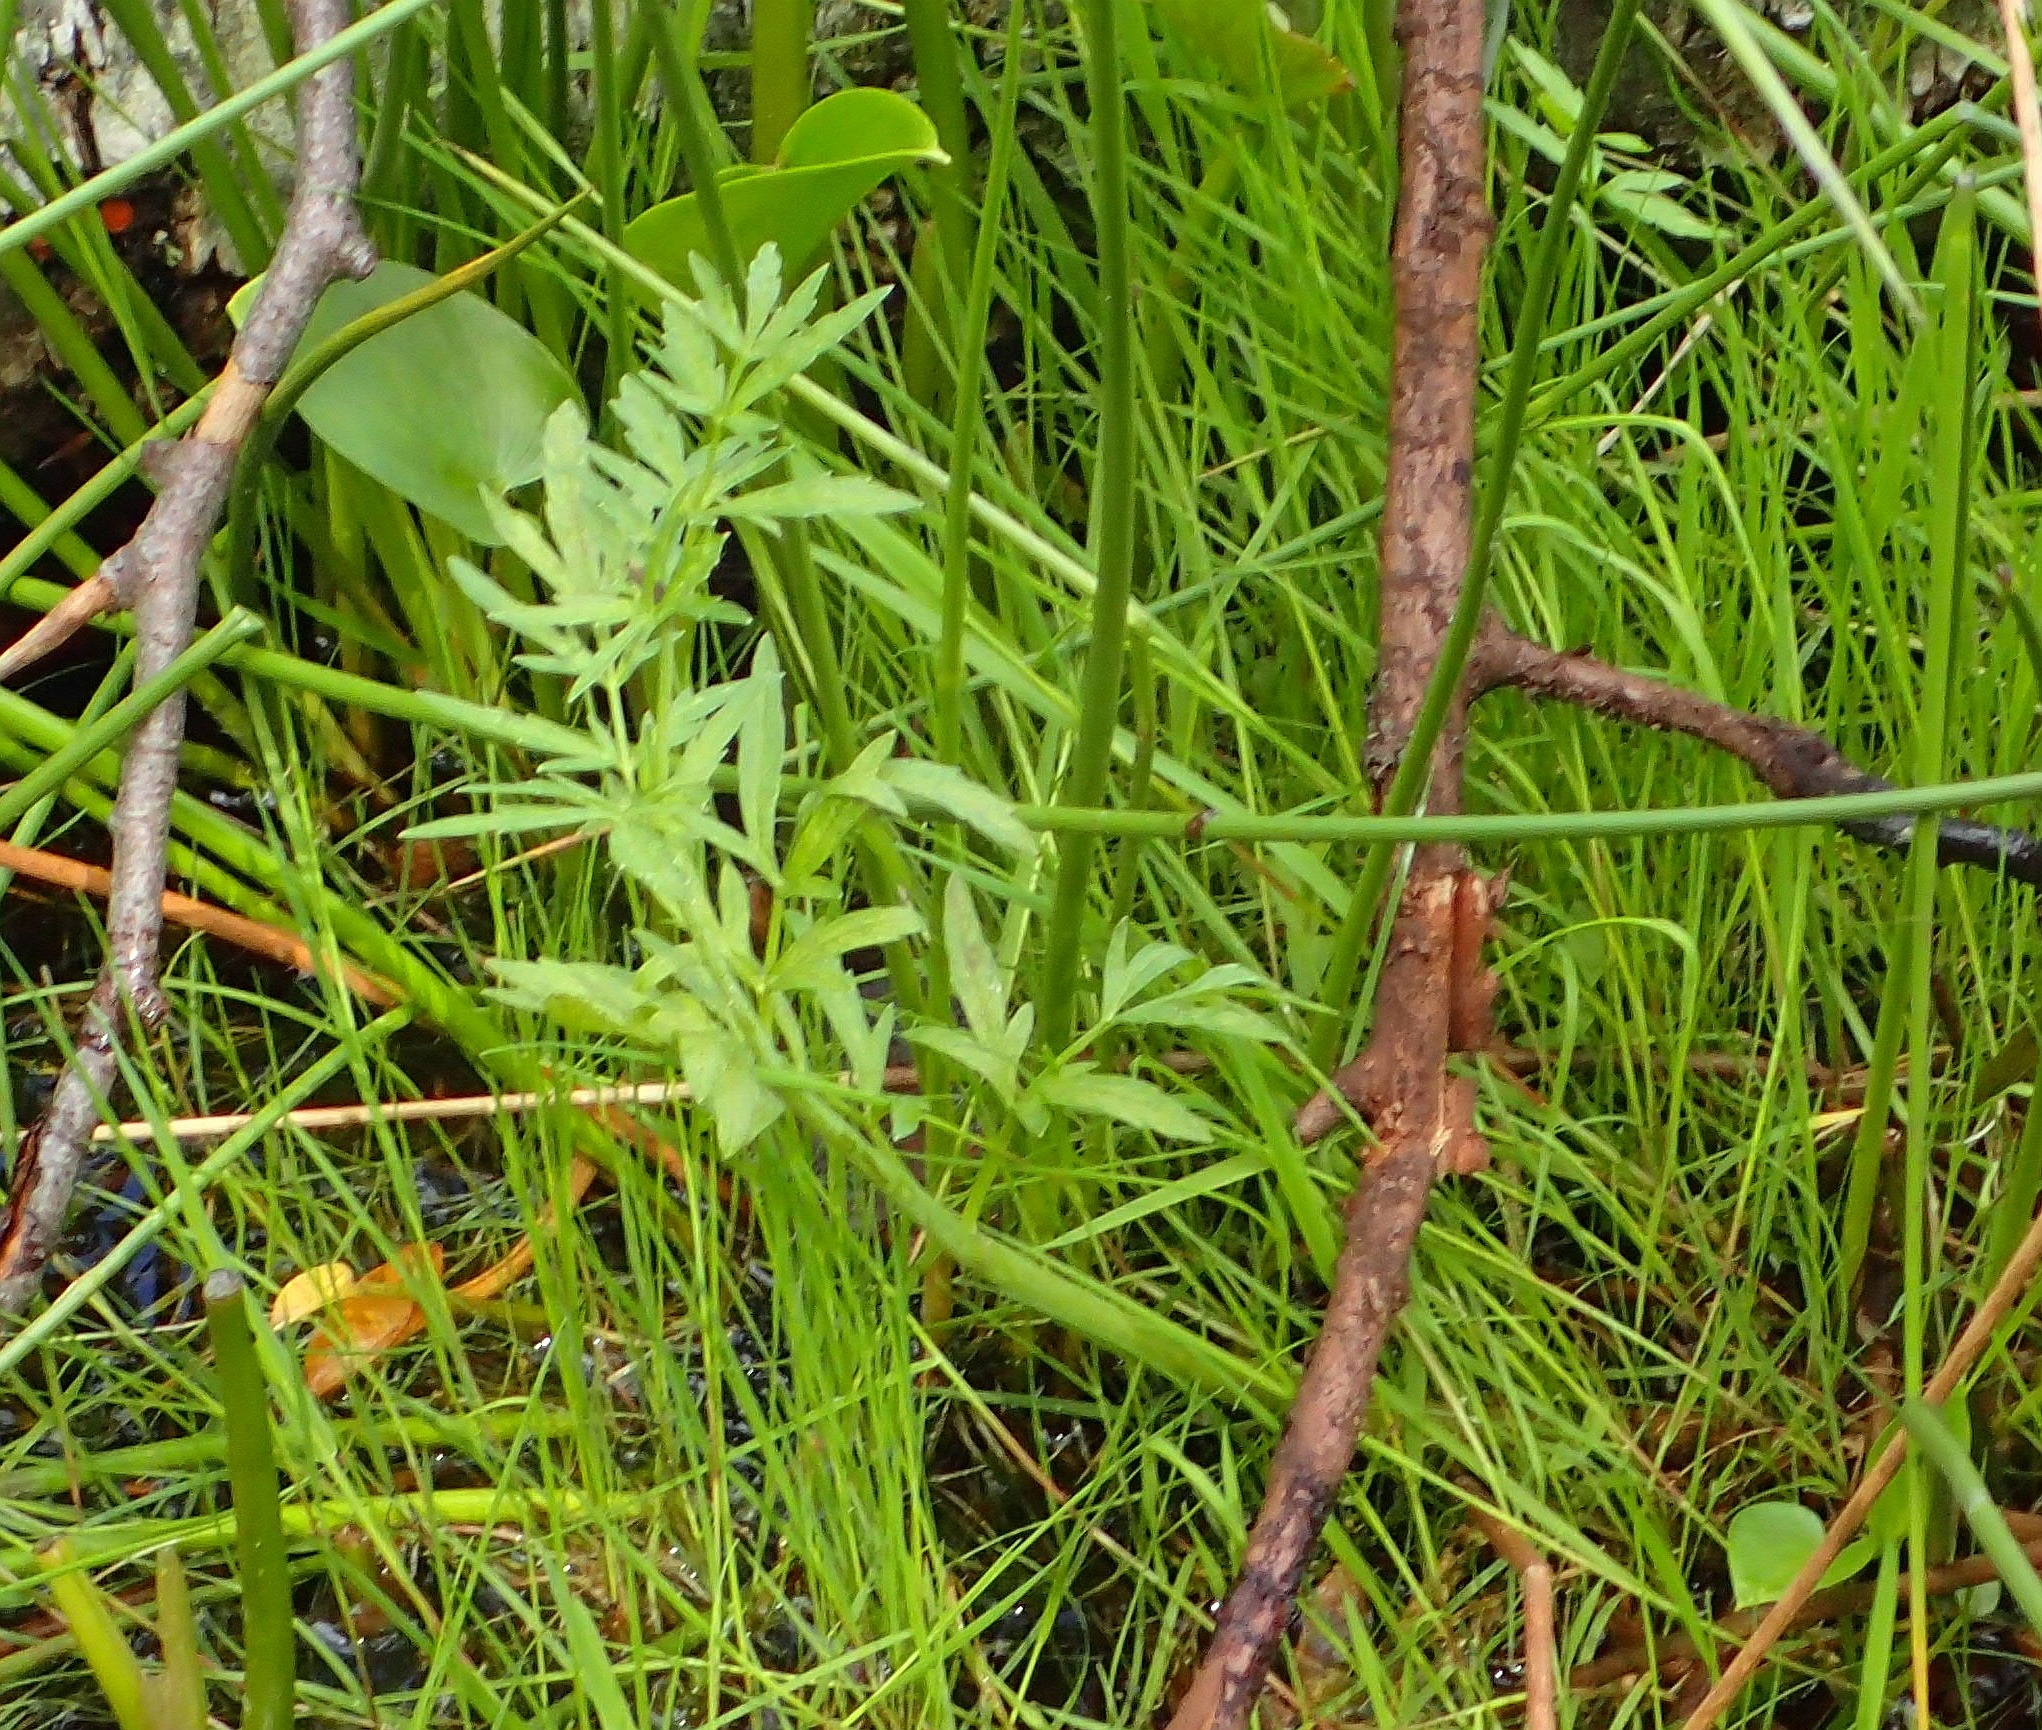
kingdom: Plantae
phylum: Tracheophyta
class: Magnoliopsida
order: Apiales
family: Apiaceae
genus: Cicuta
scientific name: Cicuta virosa
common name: Gifttyde
